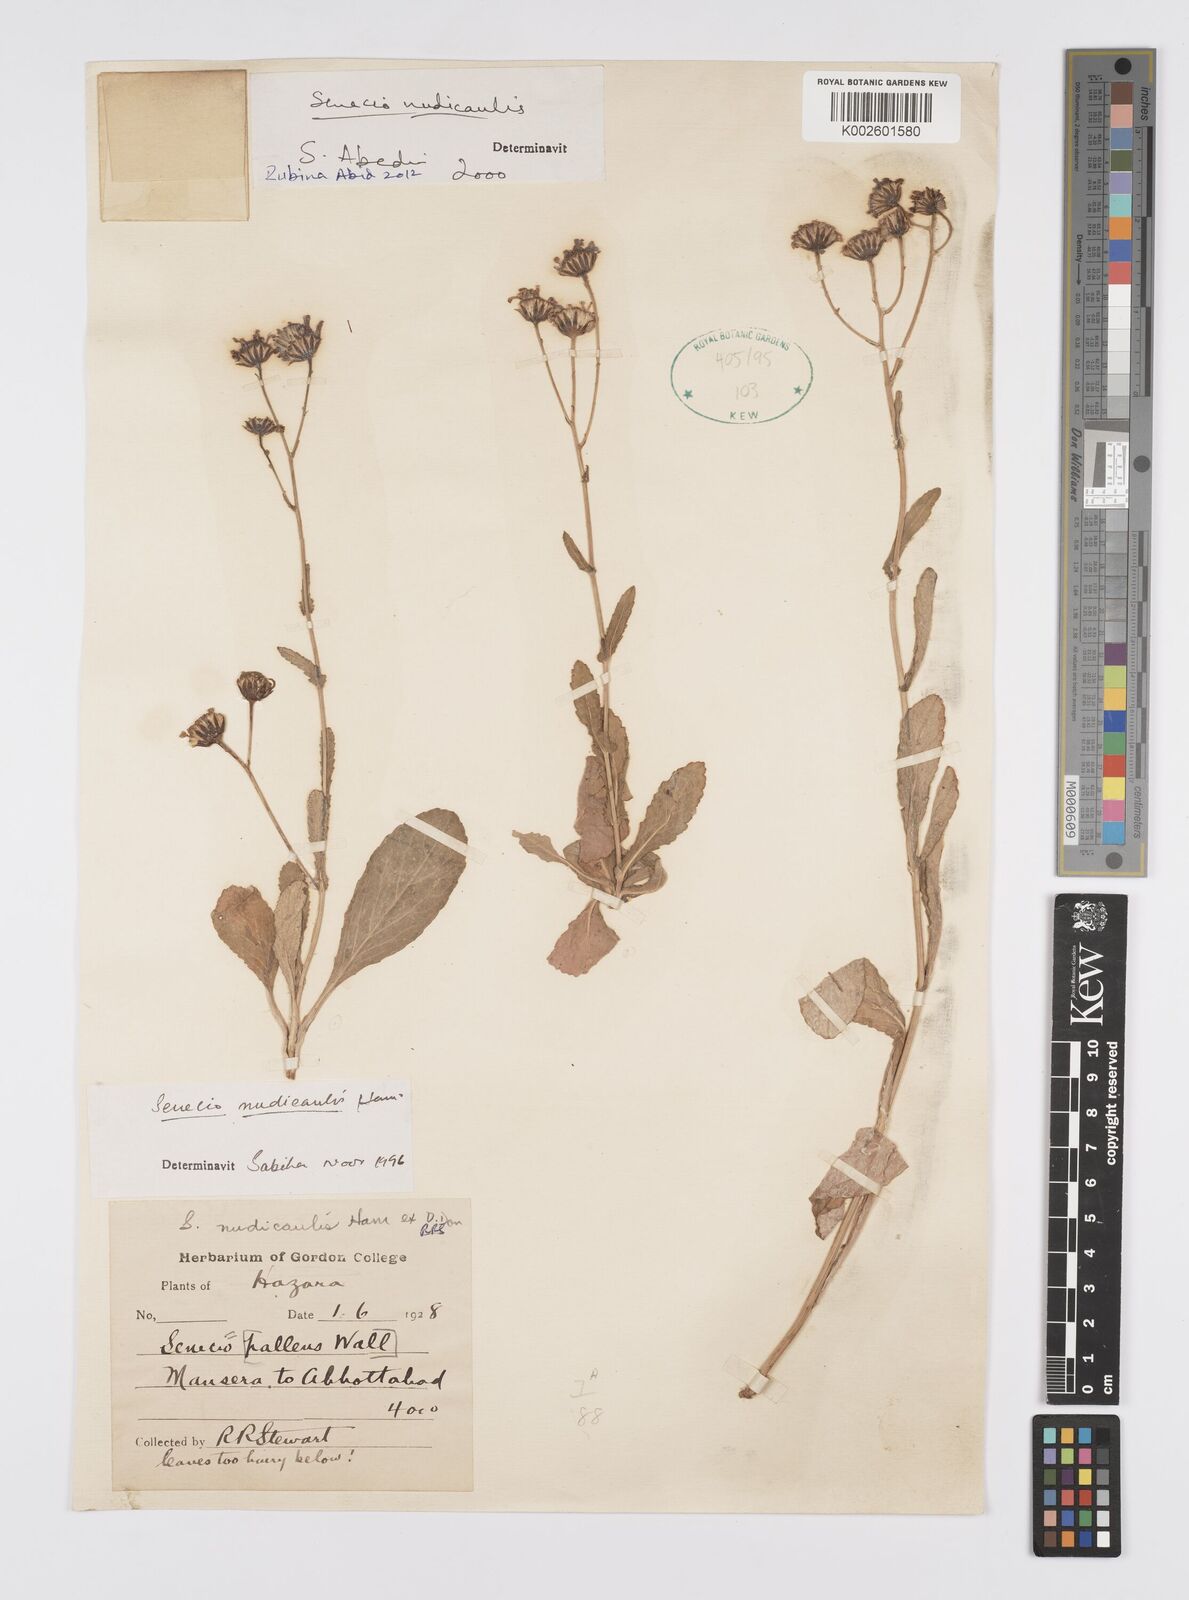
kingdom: Plantae
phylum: Tracheophyta
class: Magnoliopsida
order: Asterales
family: Asteraceae
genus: Jacobaea
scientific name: Jacobaea nudicaulis
